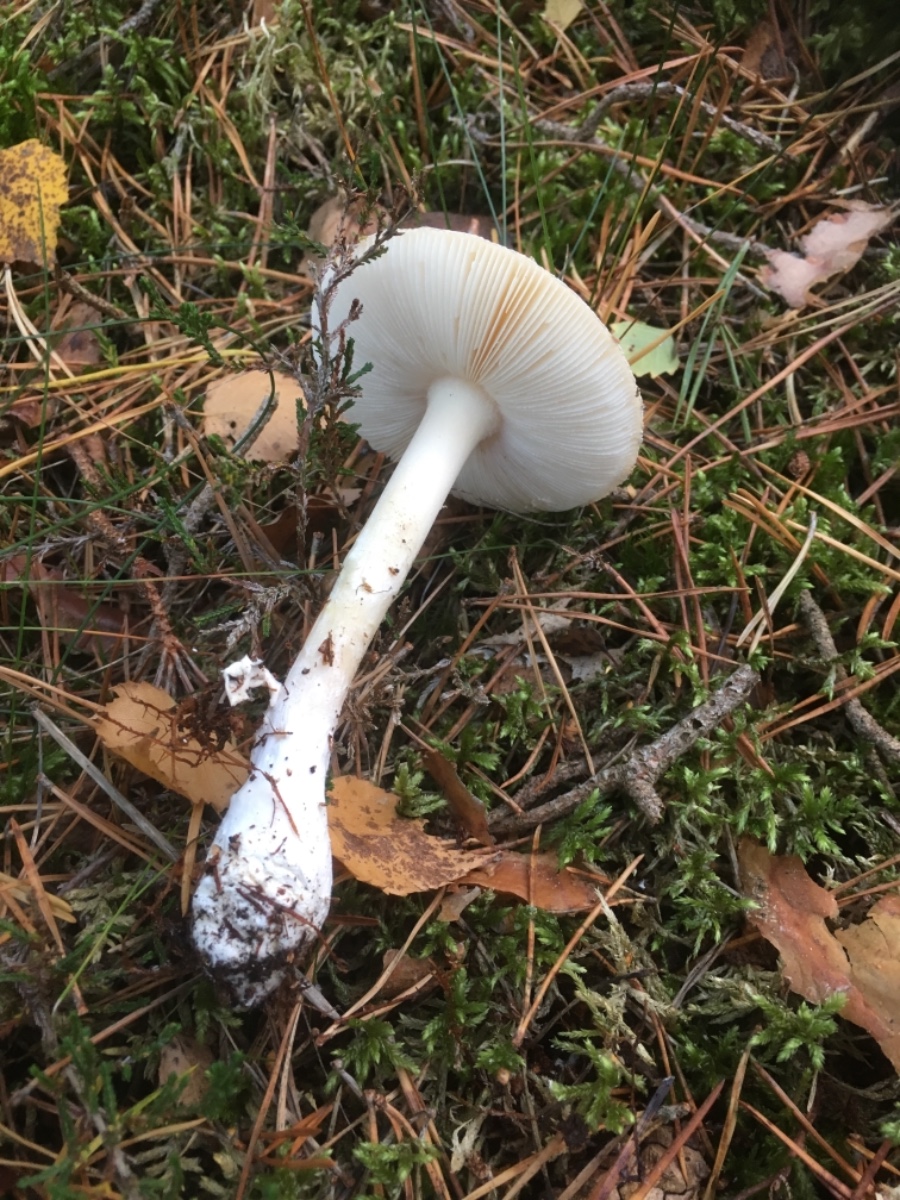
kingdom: Fungi
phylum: Basidiomycota
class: Agaricomycetes
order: Agaricales
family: Amanitaceae
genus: Amanita
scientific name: Amanita gemmata
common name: okkergul fluesvamp
